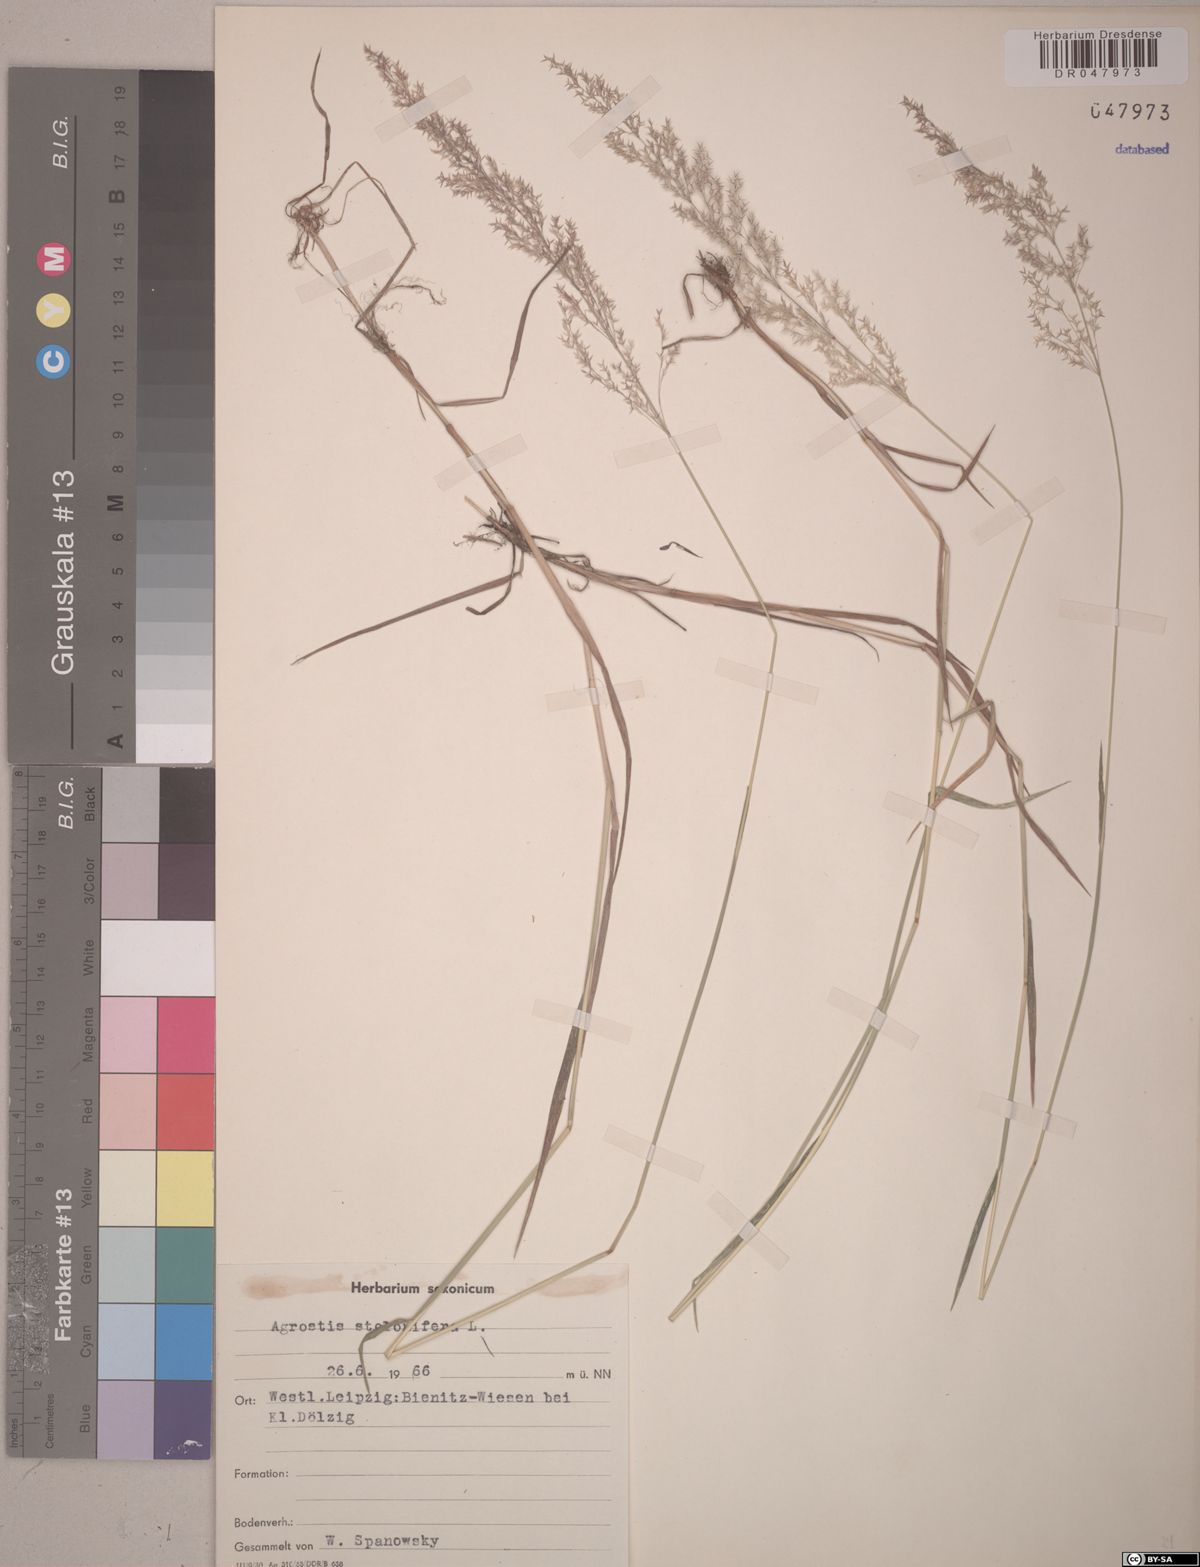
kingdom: Plantae
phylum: Tracheophyta
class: Liliopsida
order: Poales
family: Poaceae
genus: Agrostis
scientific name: Agrostis stolonifera
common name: Creeping bentgrass
